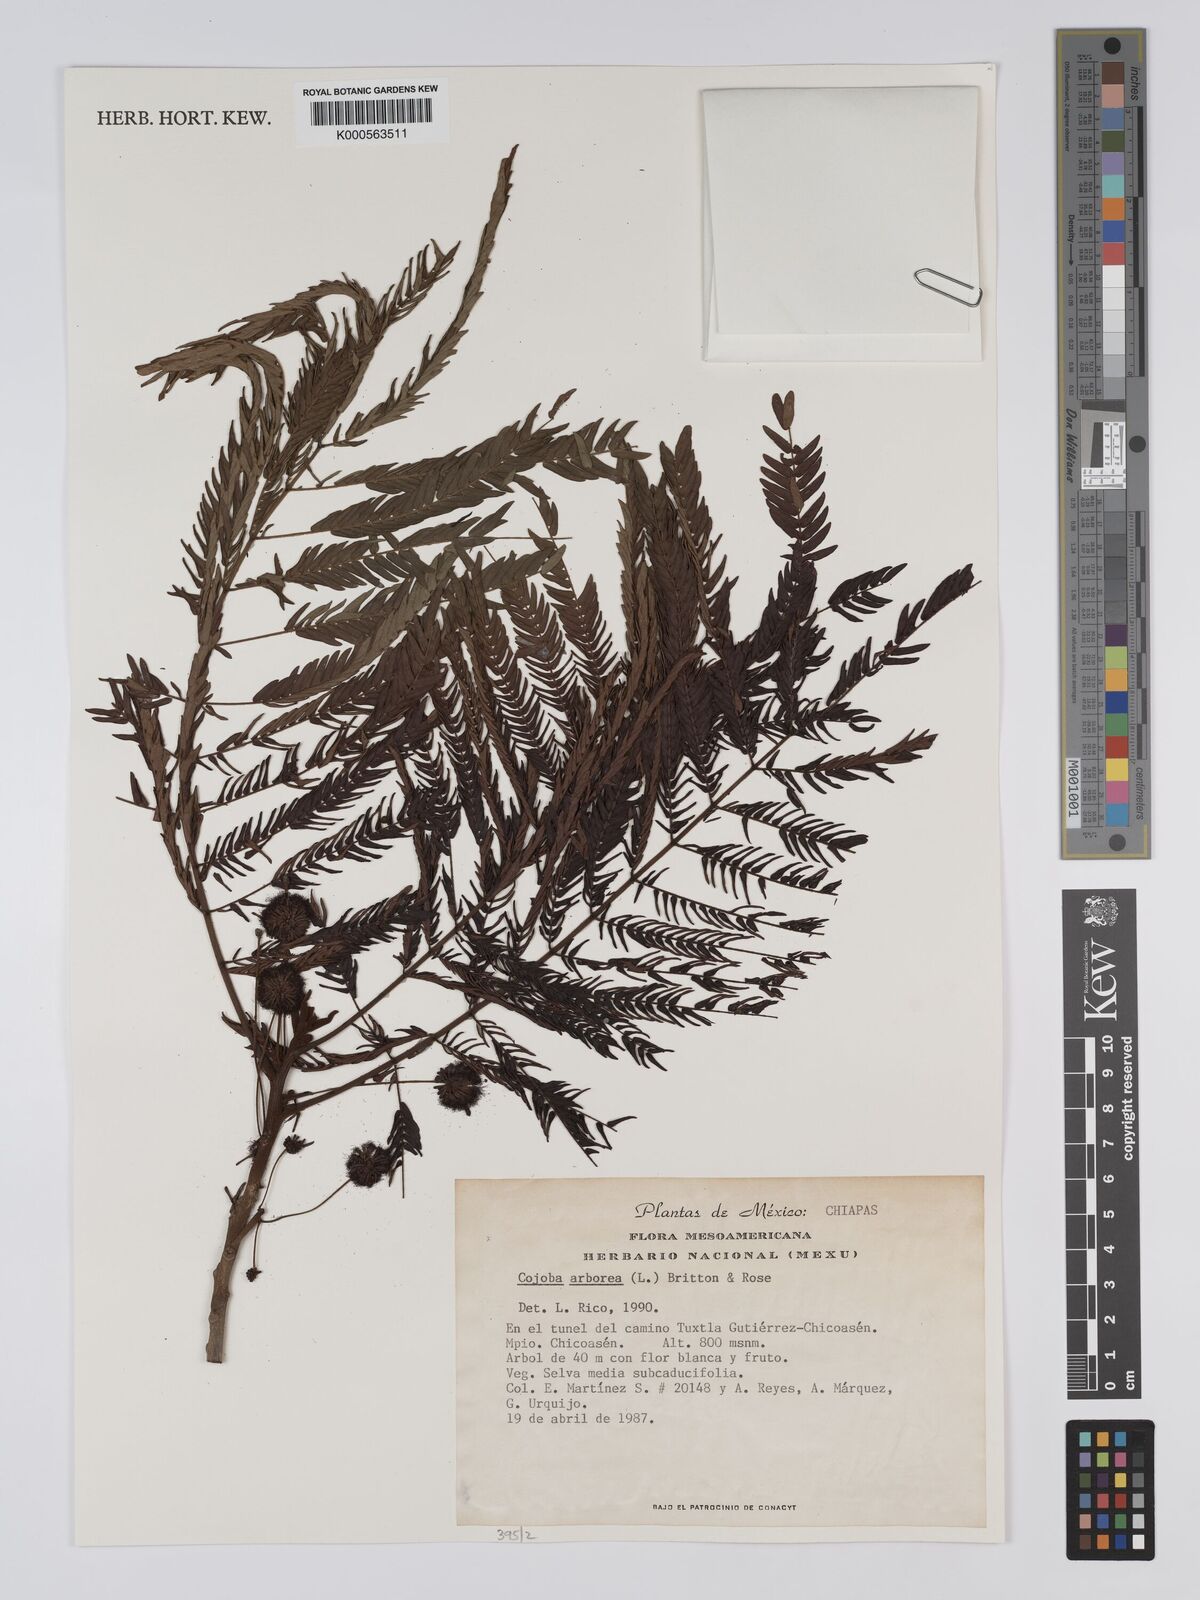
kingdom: Plantae
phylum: Tracheophyta
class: Magnoliopsida
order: Fabales
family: Fabaceae
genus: Cojoba
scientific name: Cojoba arborea
